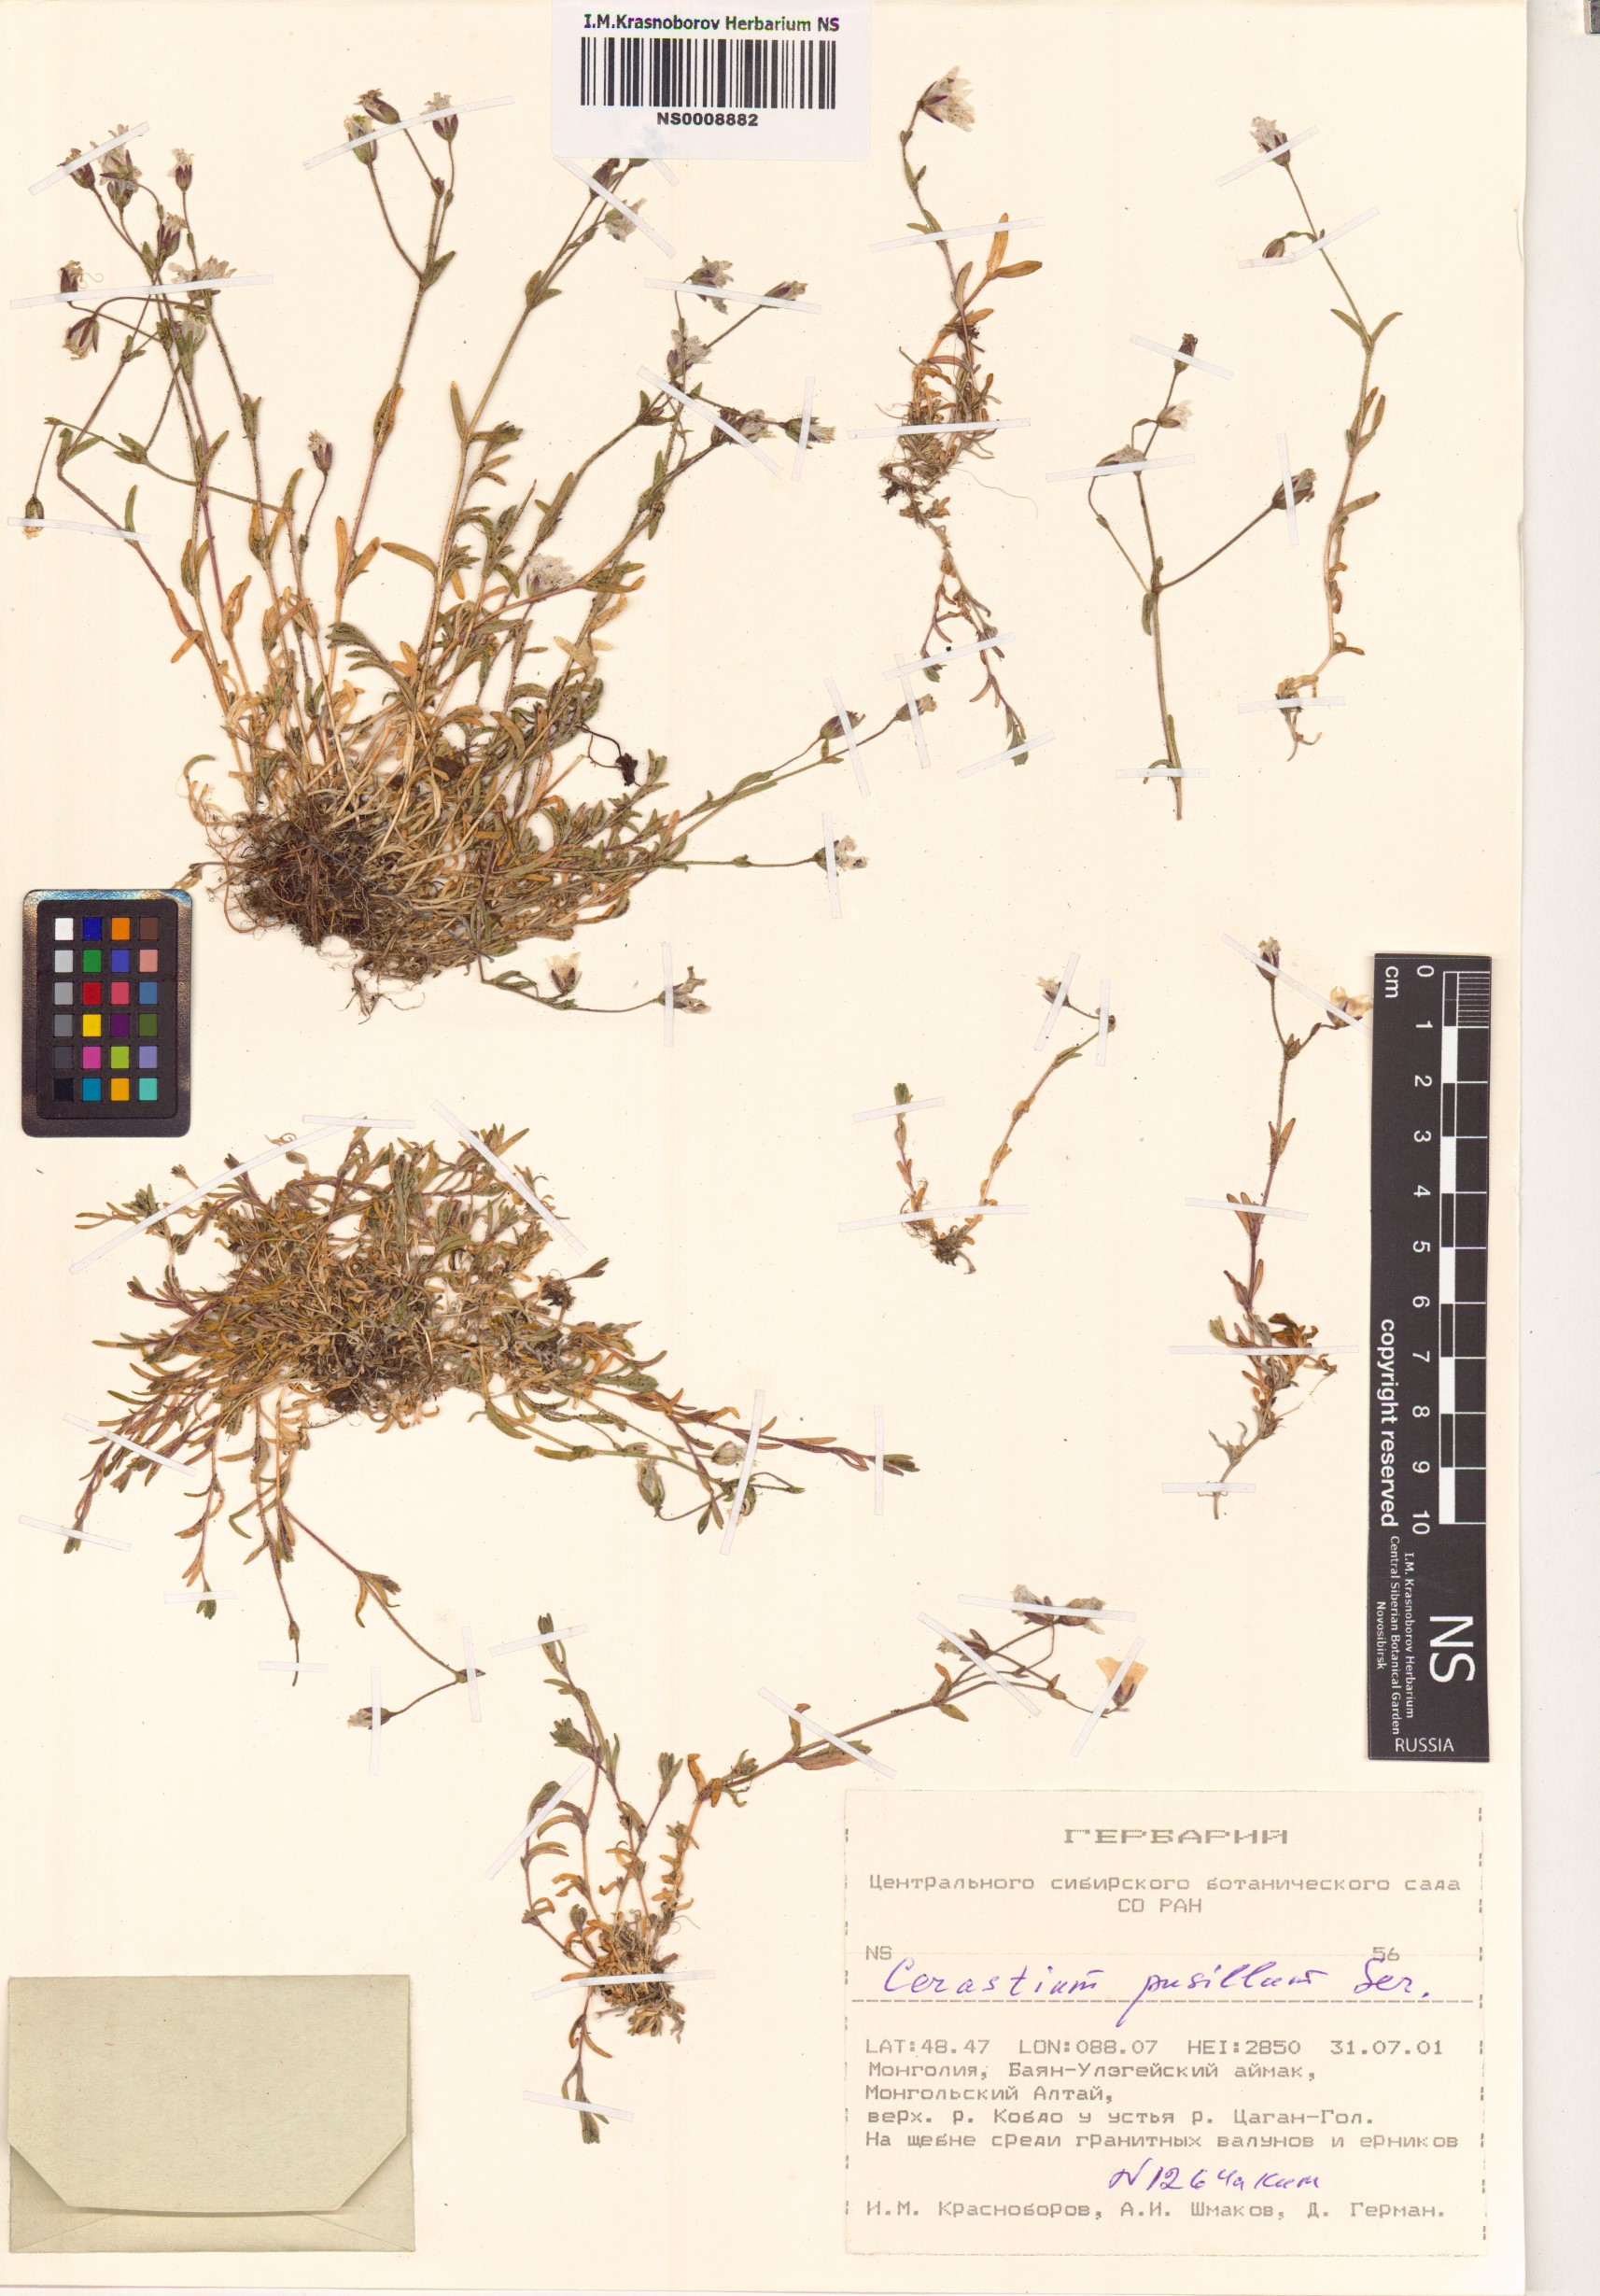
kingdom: Plantae
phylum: Tracheophyta
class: Magnoliopsida
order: Caryophyllales
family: Caryophyllaceae
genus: Cerastium
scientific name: Cerastium pusillum
